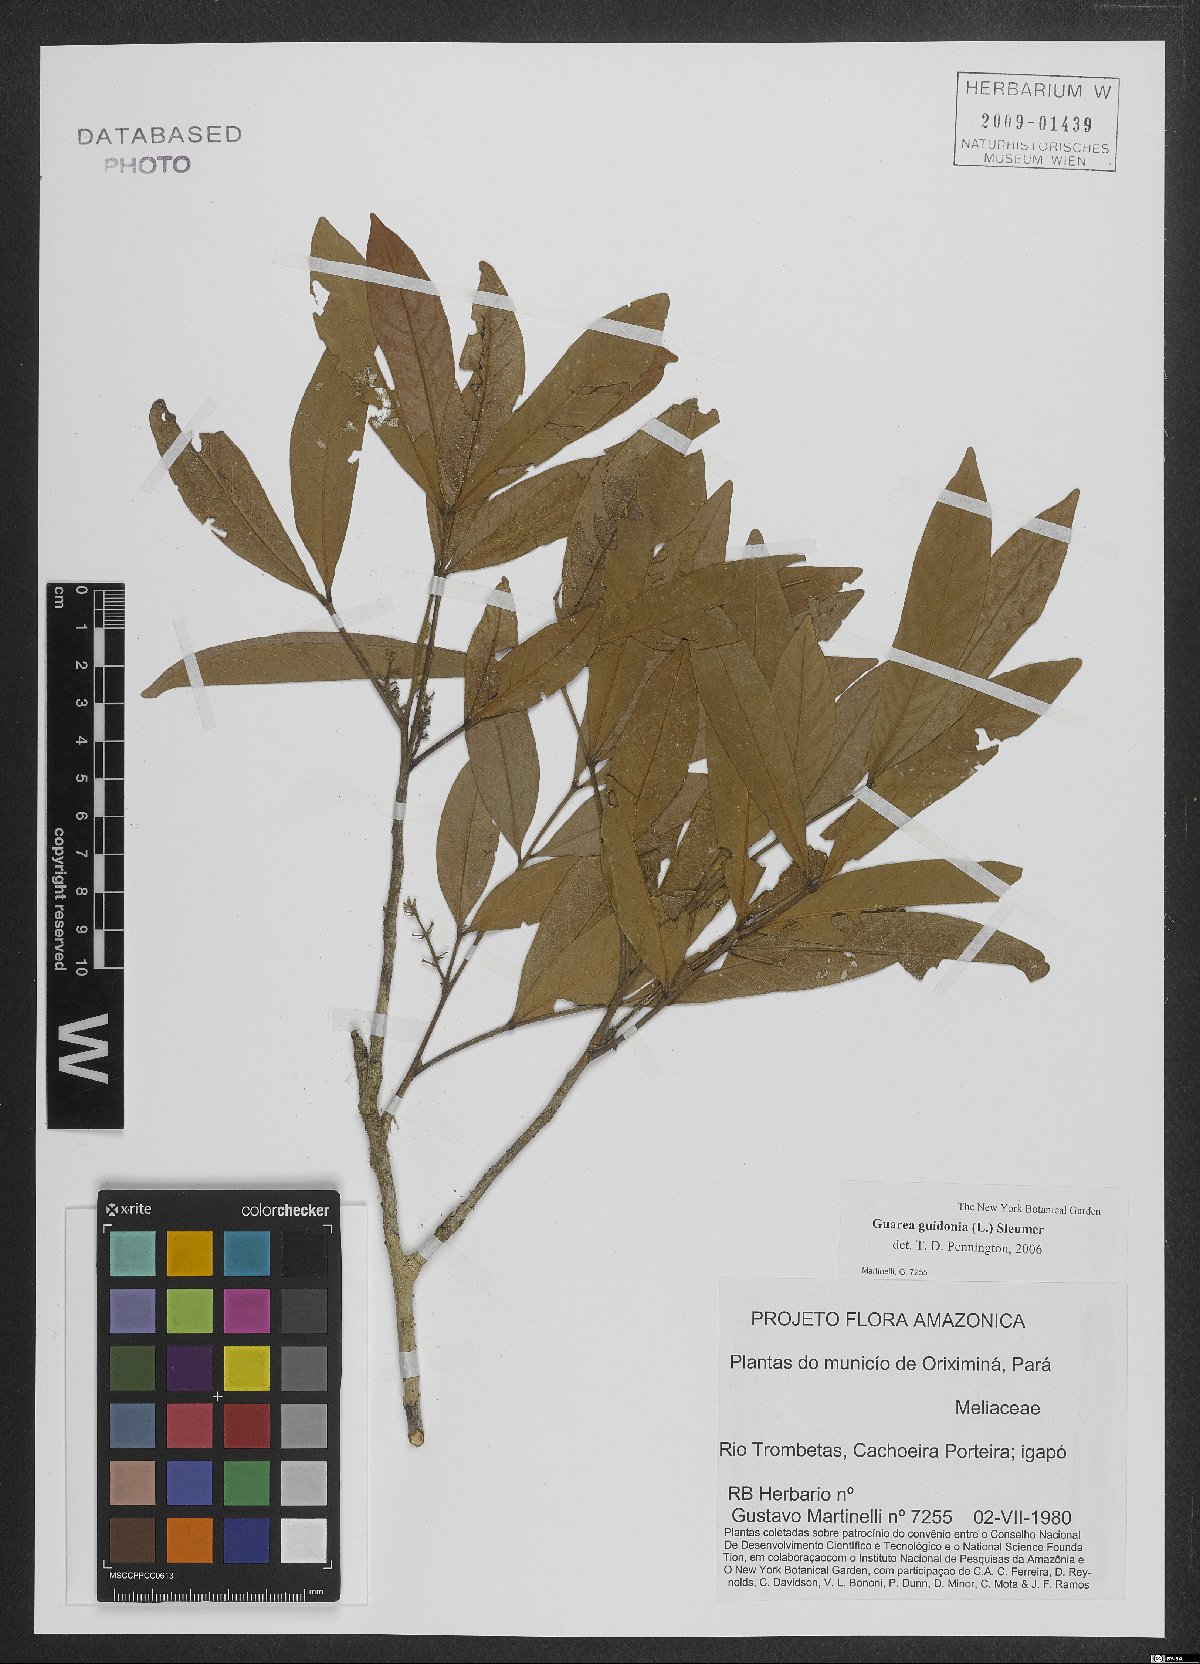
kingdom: Plantae
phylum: Tracheophyta
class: Magnoliopsida
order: Sapindales
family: Meliaceae
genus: Guarea
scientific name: Guarea guidonia
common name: American muskwood
